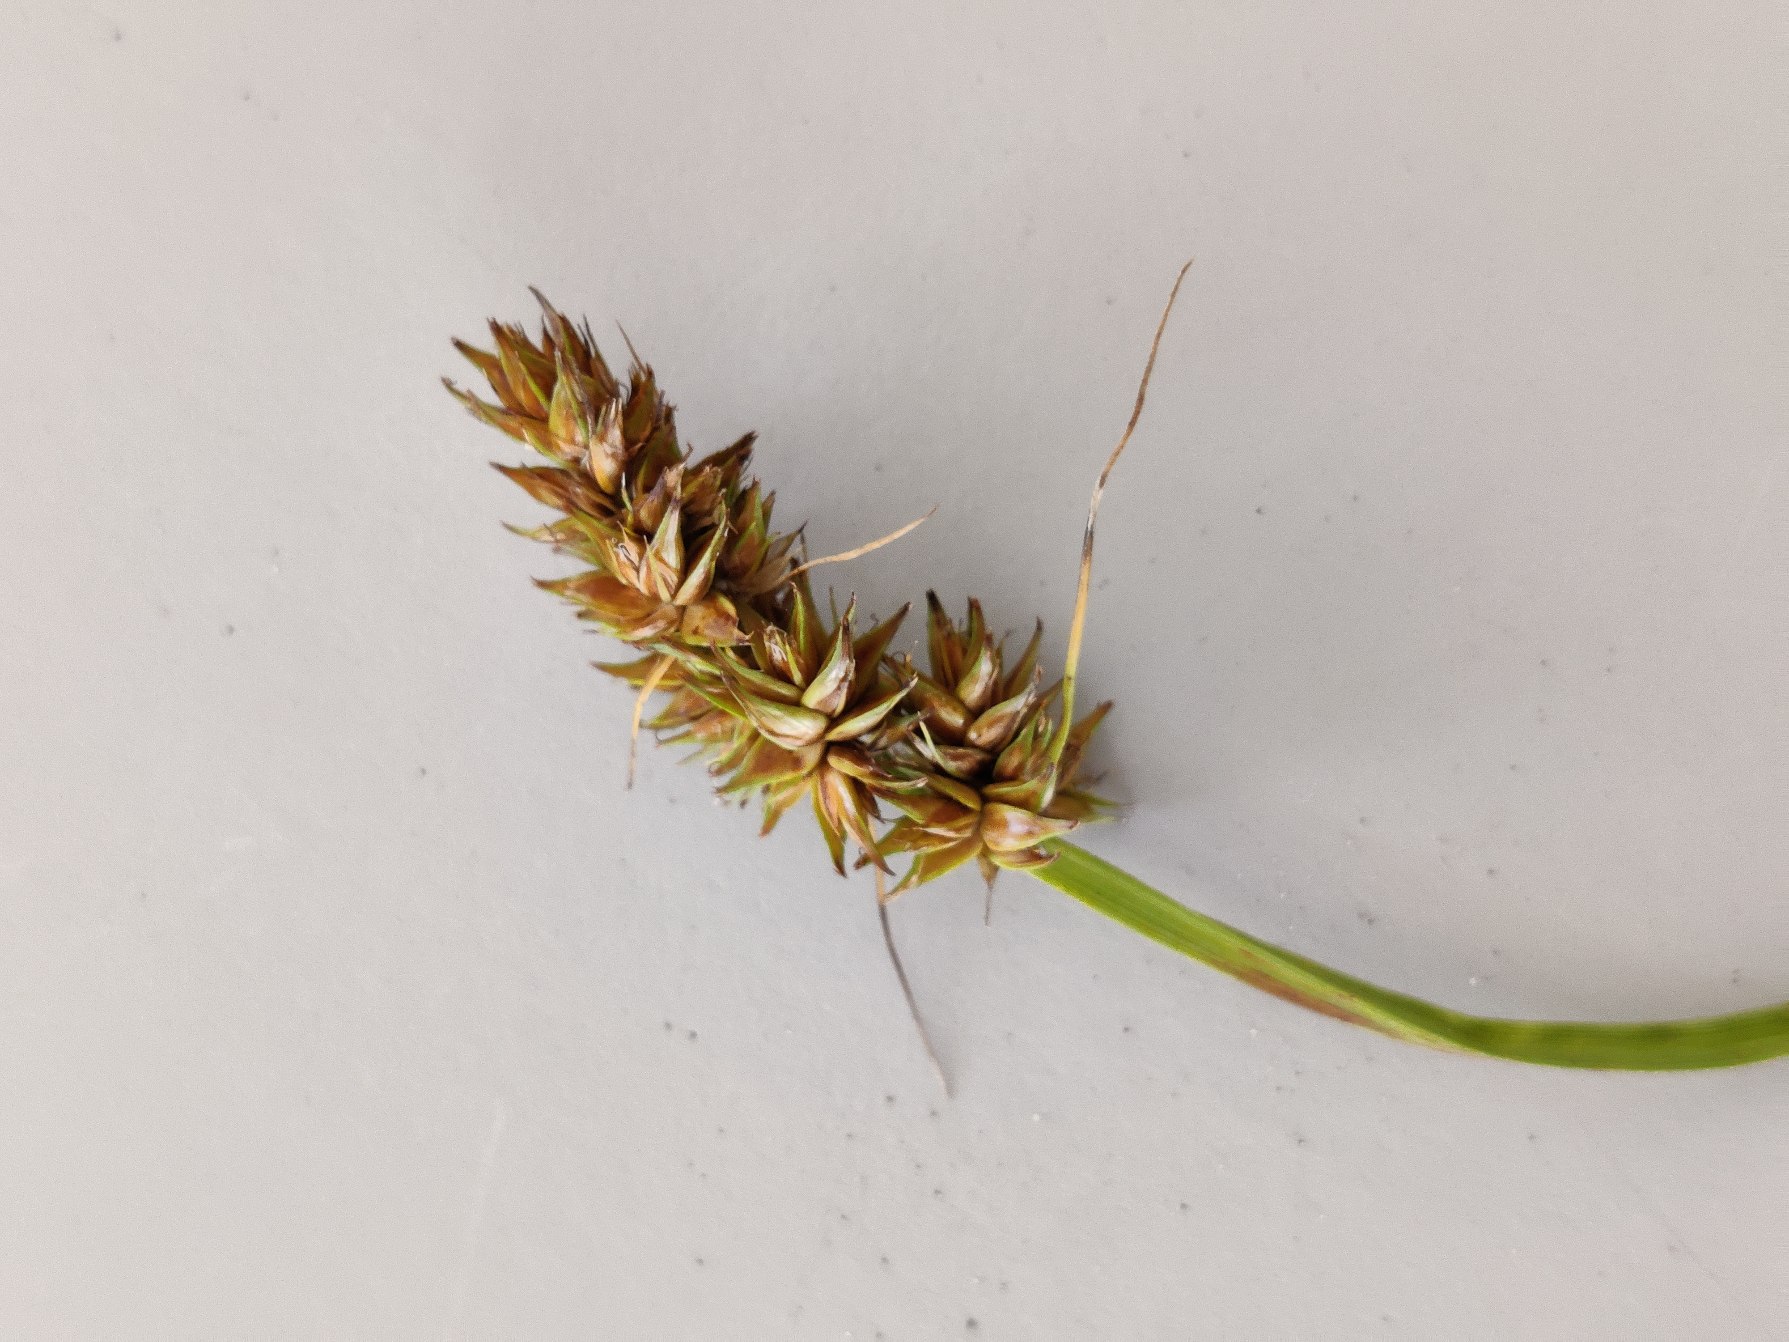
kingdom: Plantae
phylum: Tracheophyta
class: Liliopsida
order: Poales
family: Cyperaceae
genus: Carex
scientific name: Carex otrubae
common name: Sylt-star
